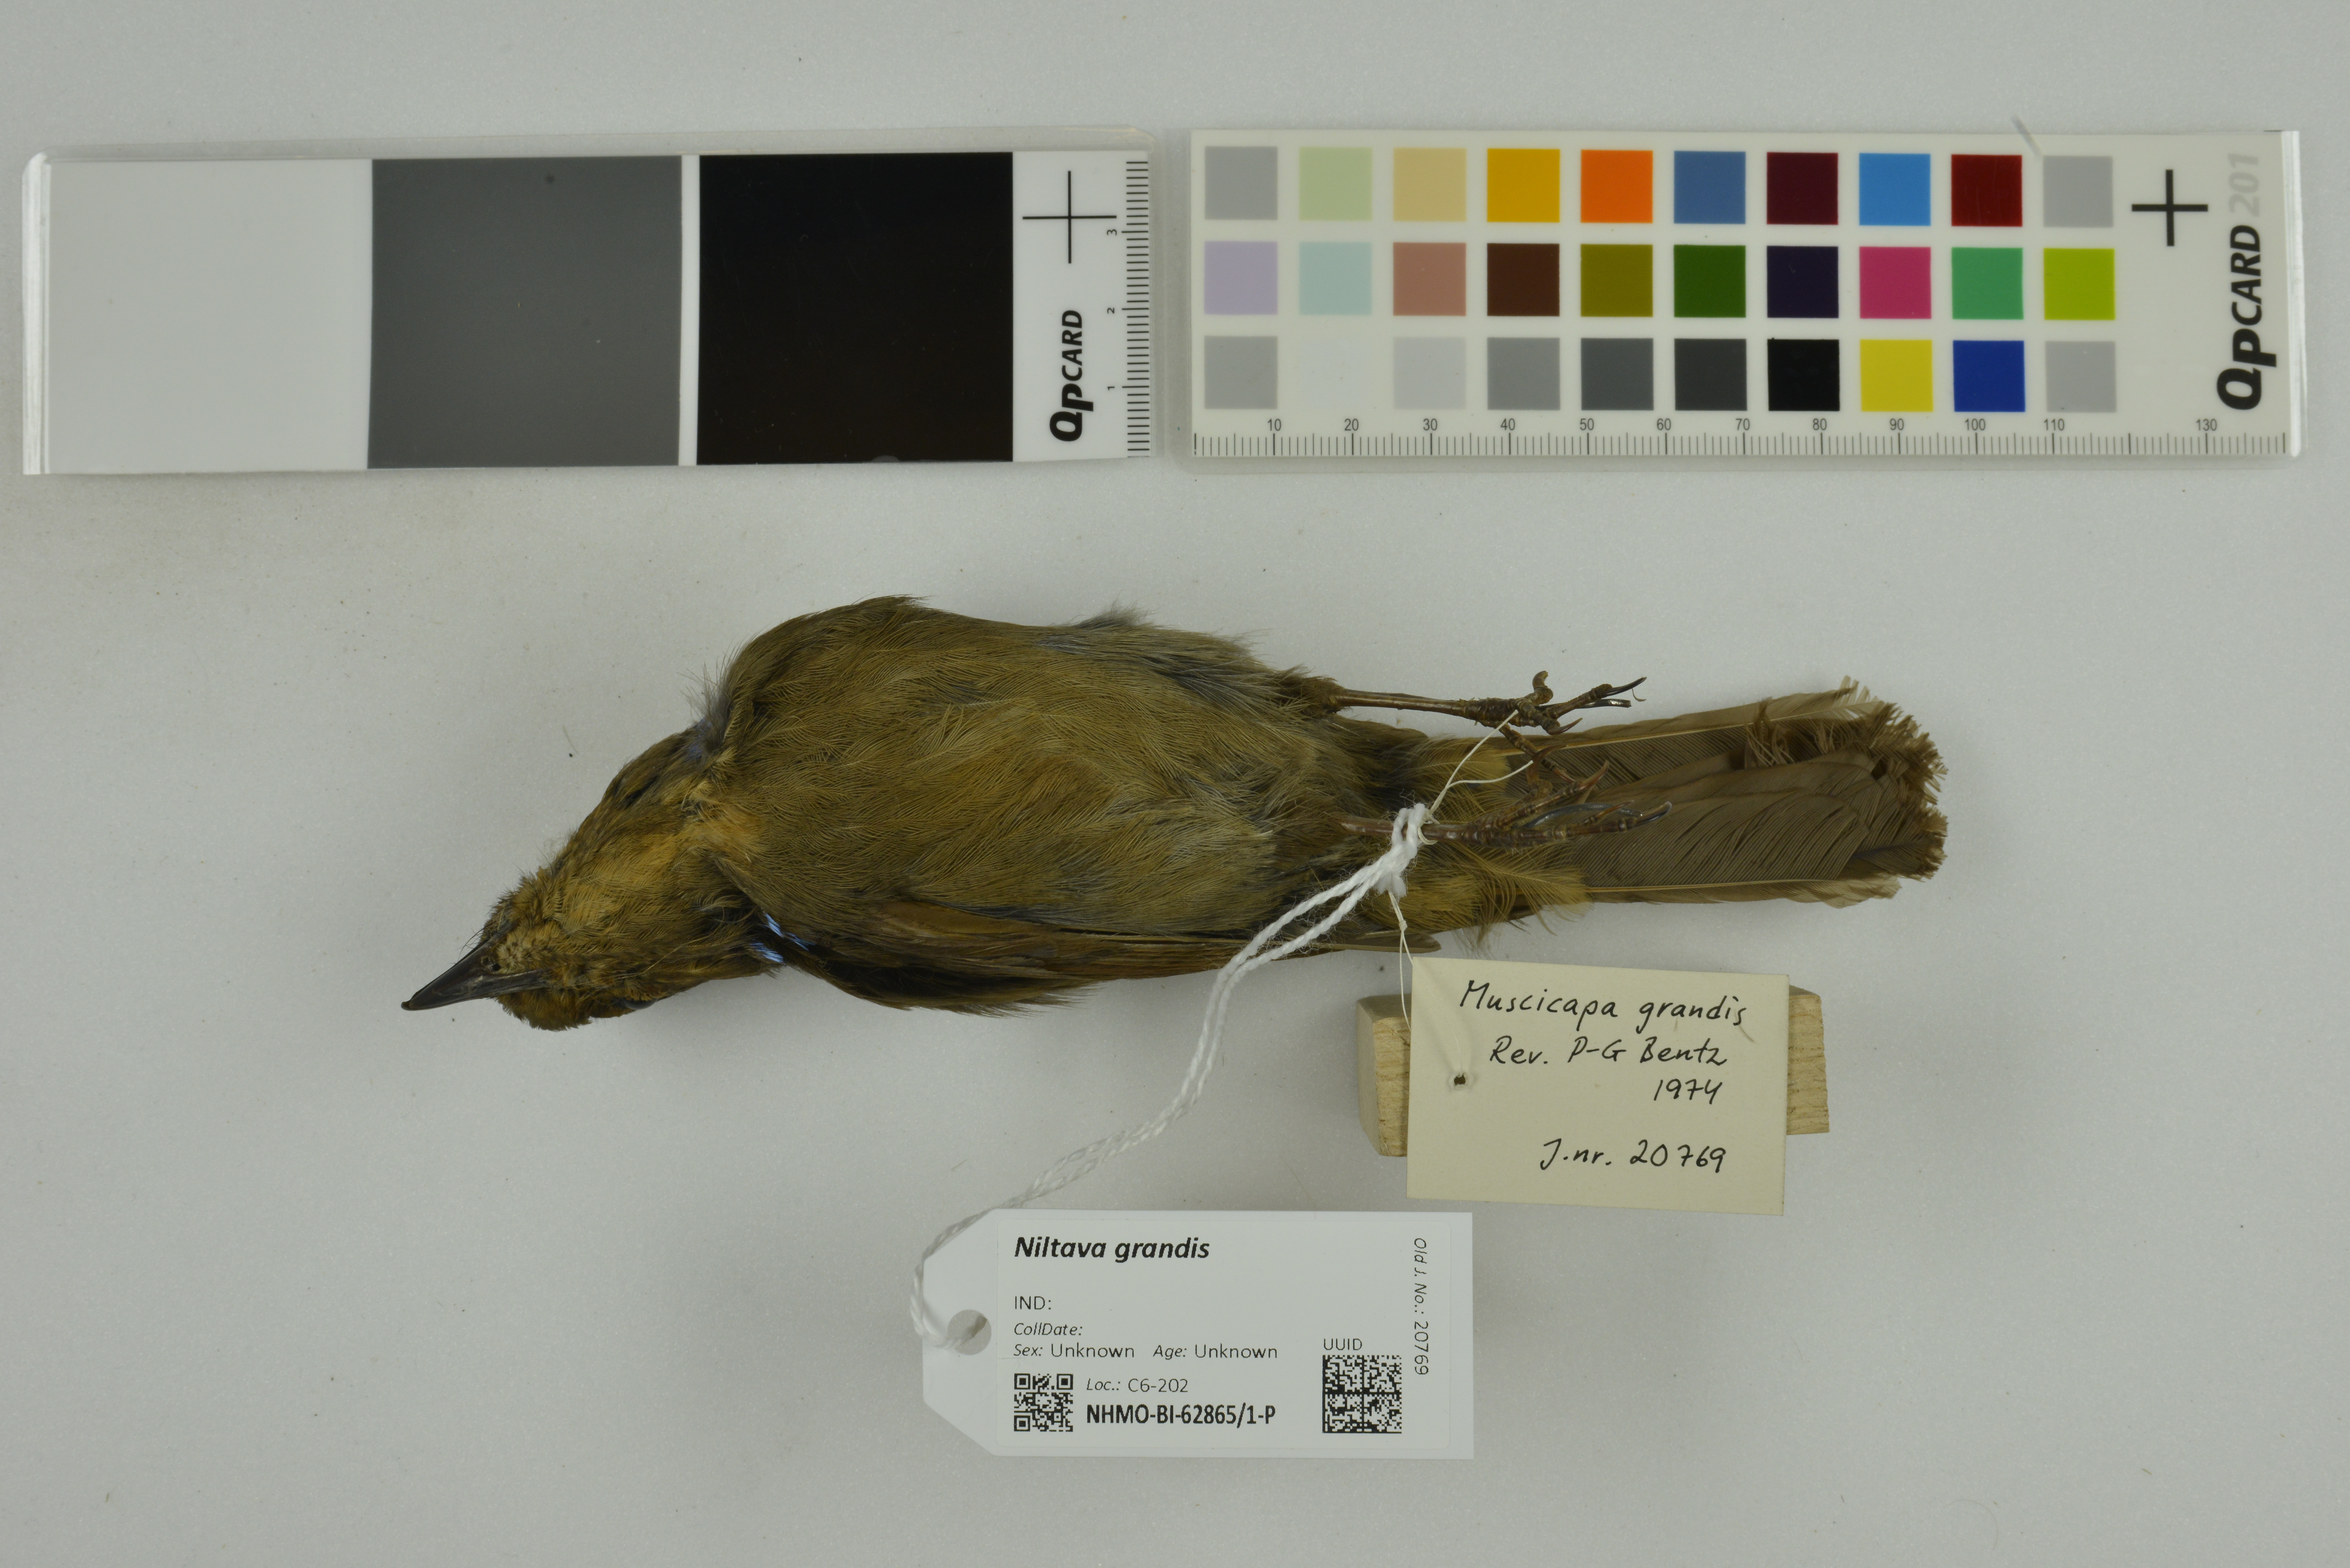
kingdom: Animalia
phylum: Chordata
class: Aves
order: Passeriformes
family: Muscicapidae
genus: Niltava
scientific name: Niltava grandis
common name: Large niltava
